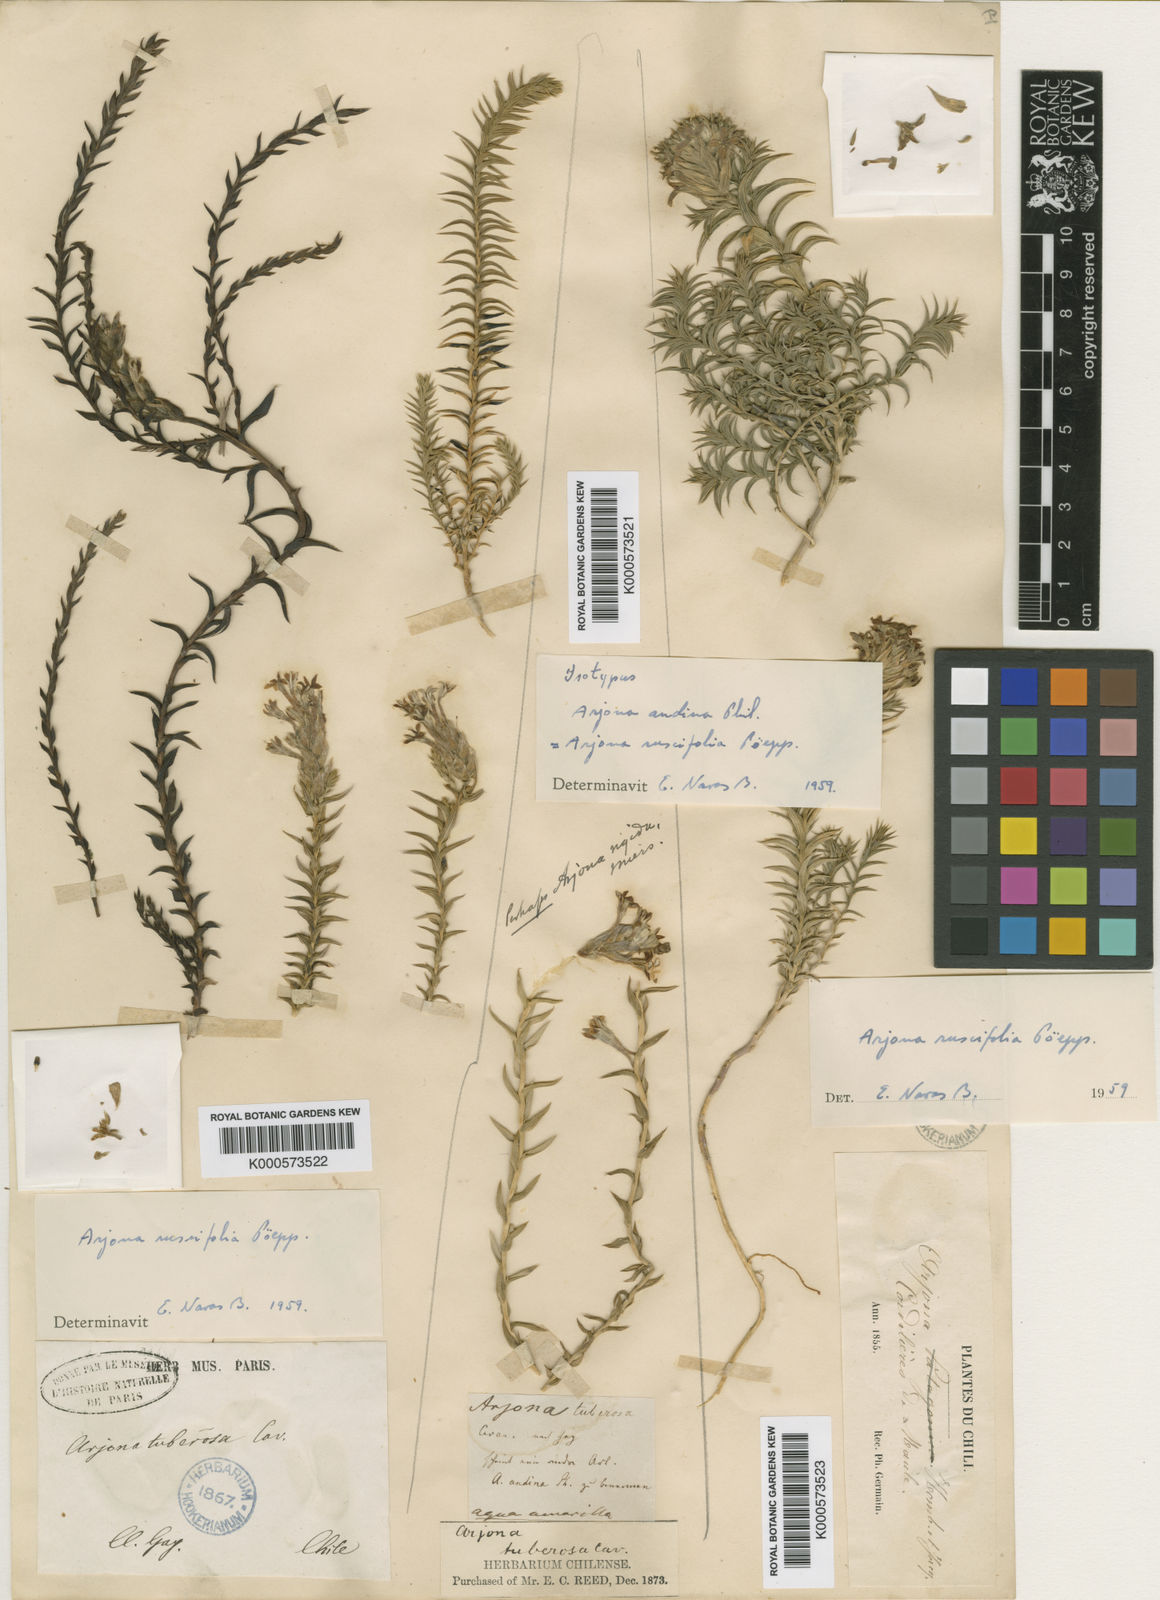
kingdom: Plantae
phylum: Tracheophyta
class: Magnoliopsida
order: Santalales
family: Schoepfiaceae
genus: Arjona
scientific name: Arjona patagonica
